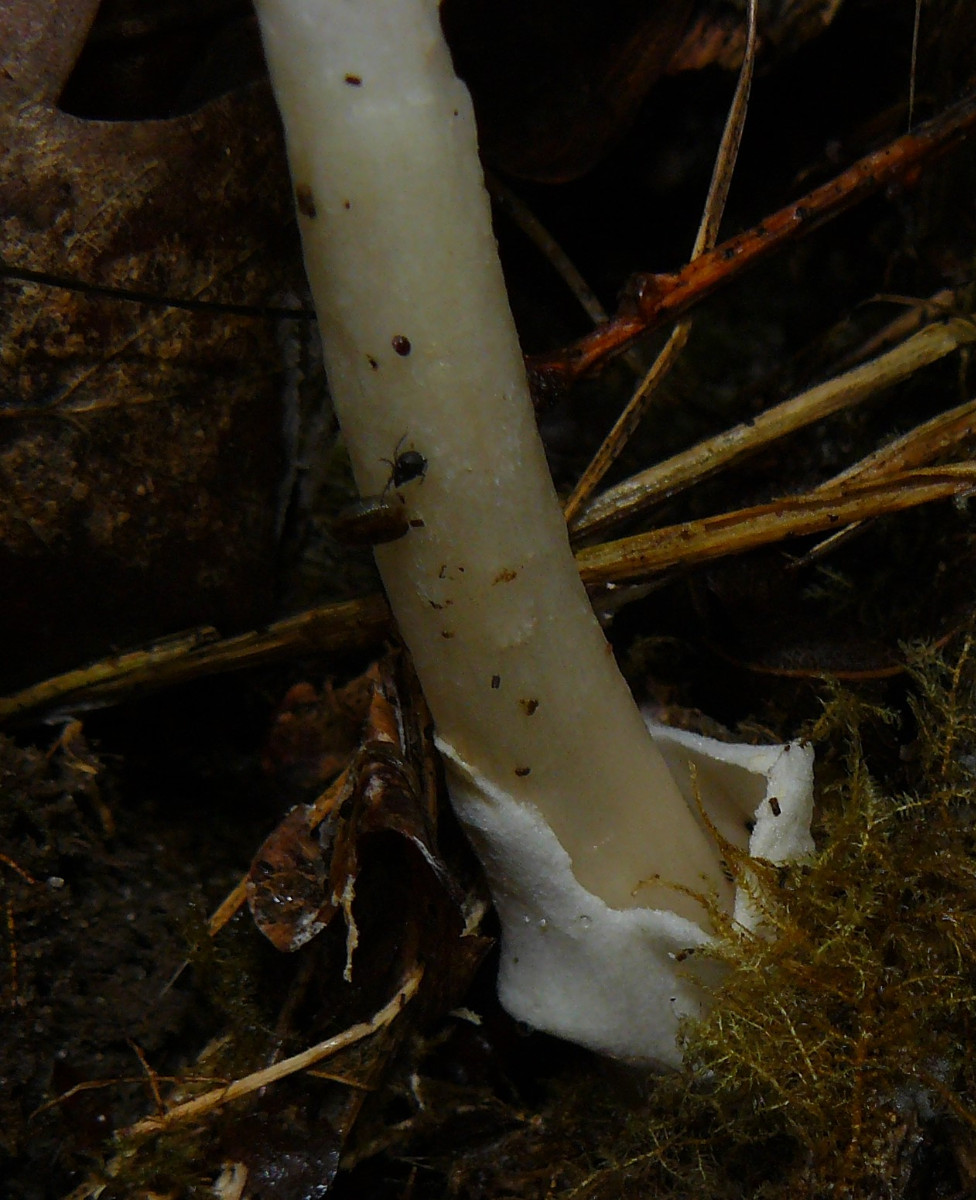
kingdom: Fungi
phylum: Basidiomycota
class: Agaricomycetes
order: Agaricales
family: Amanitaceae
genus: Amanita
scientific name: Amanita vaginata
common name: grå kam-fluesvamp
